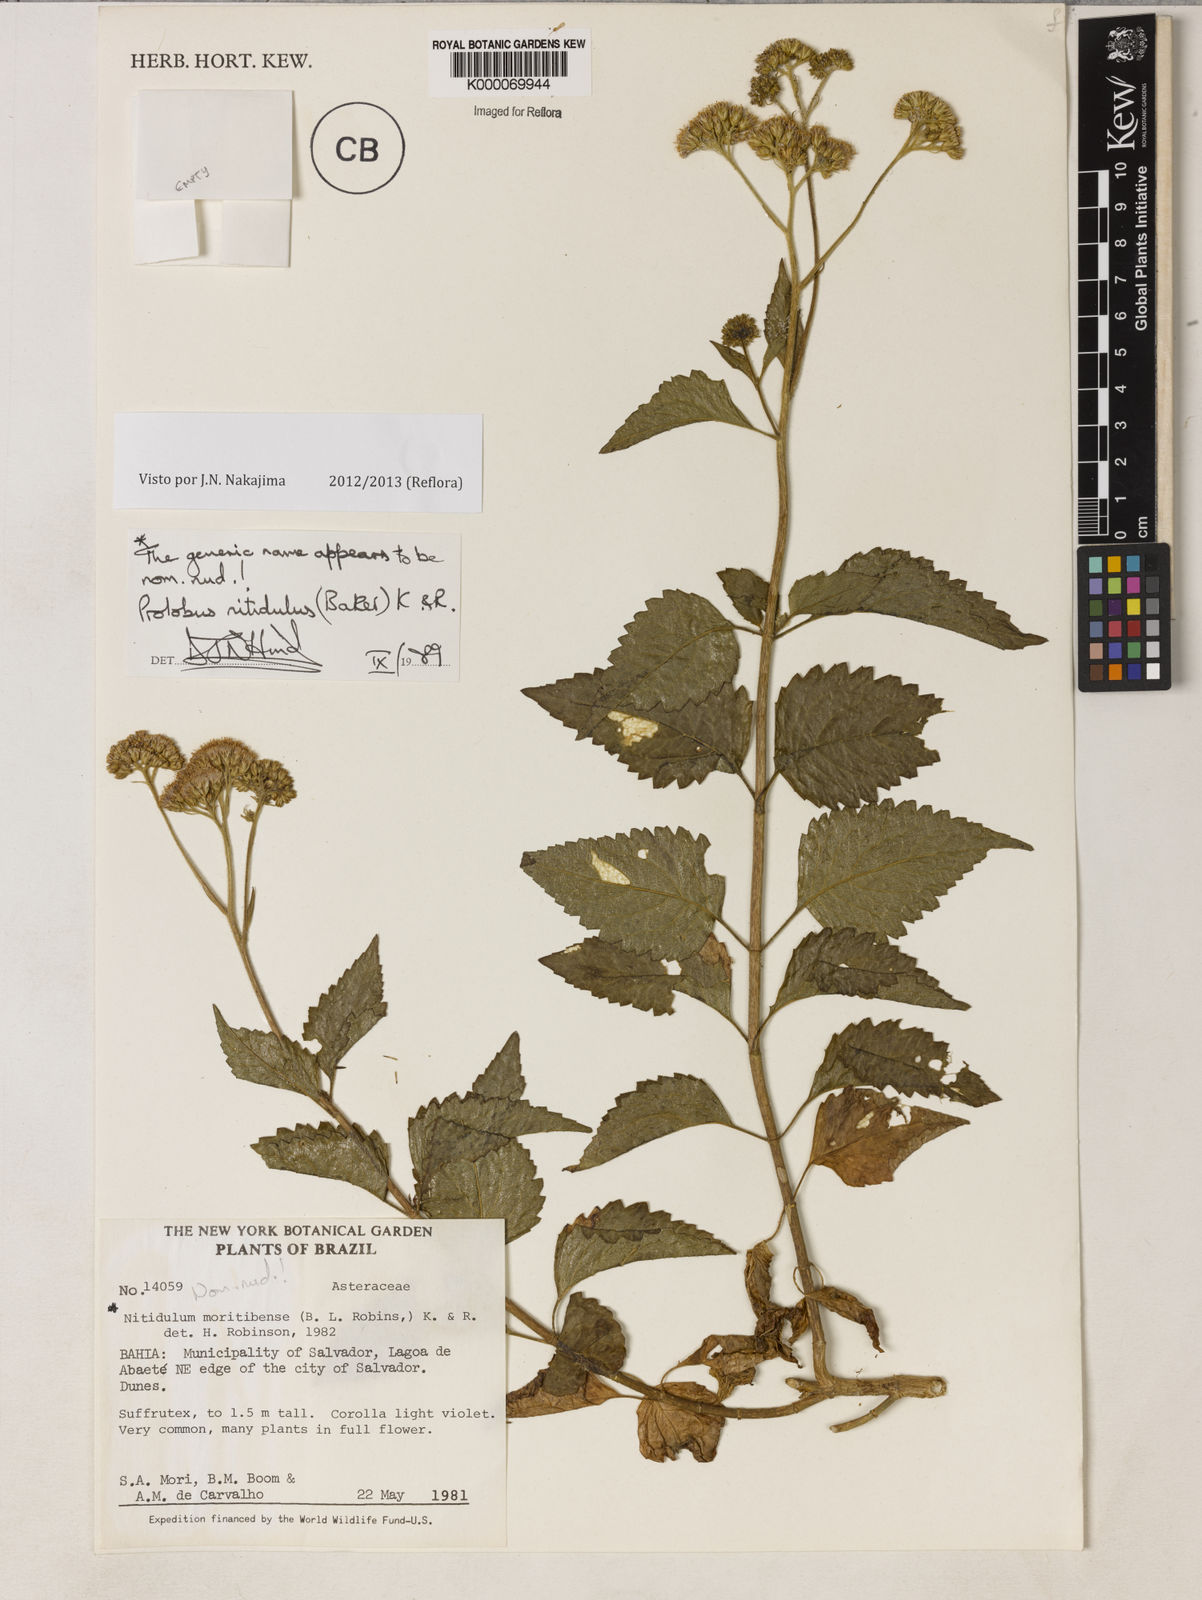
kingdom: Plantae
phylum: Tracheophyta
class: Magnoliopsida
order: Asterales
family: Asteraceae
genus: Prolobus
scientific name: Prolobus nitidulus
